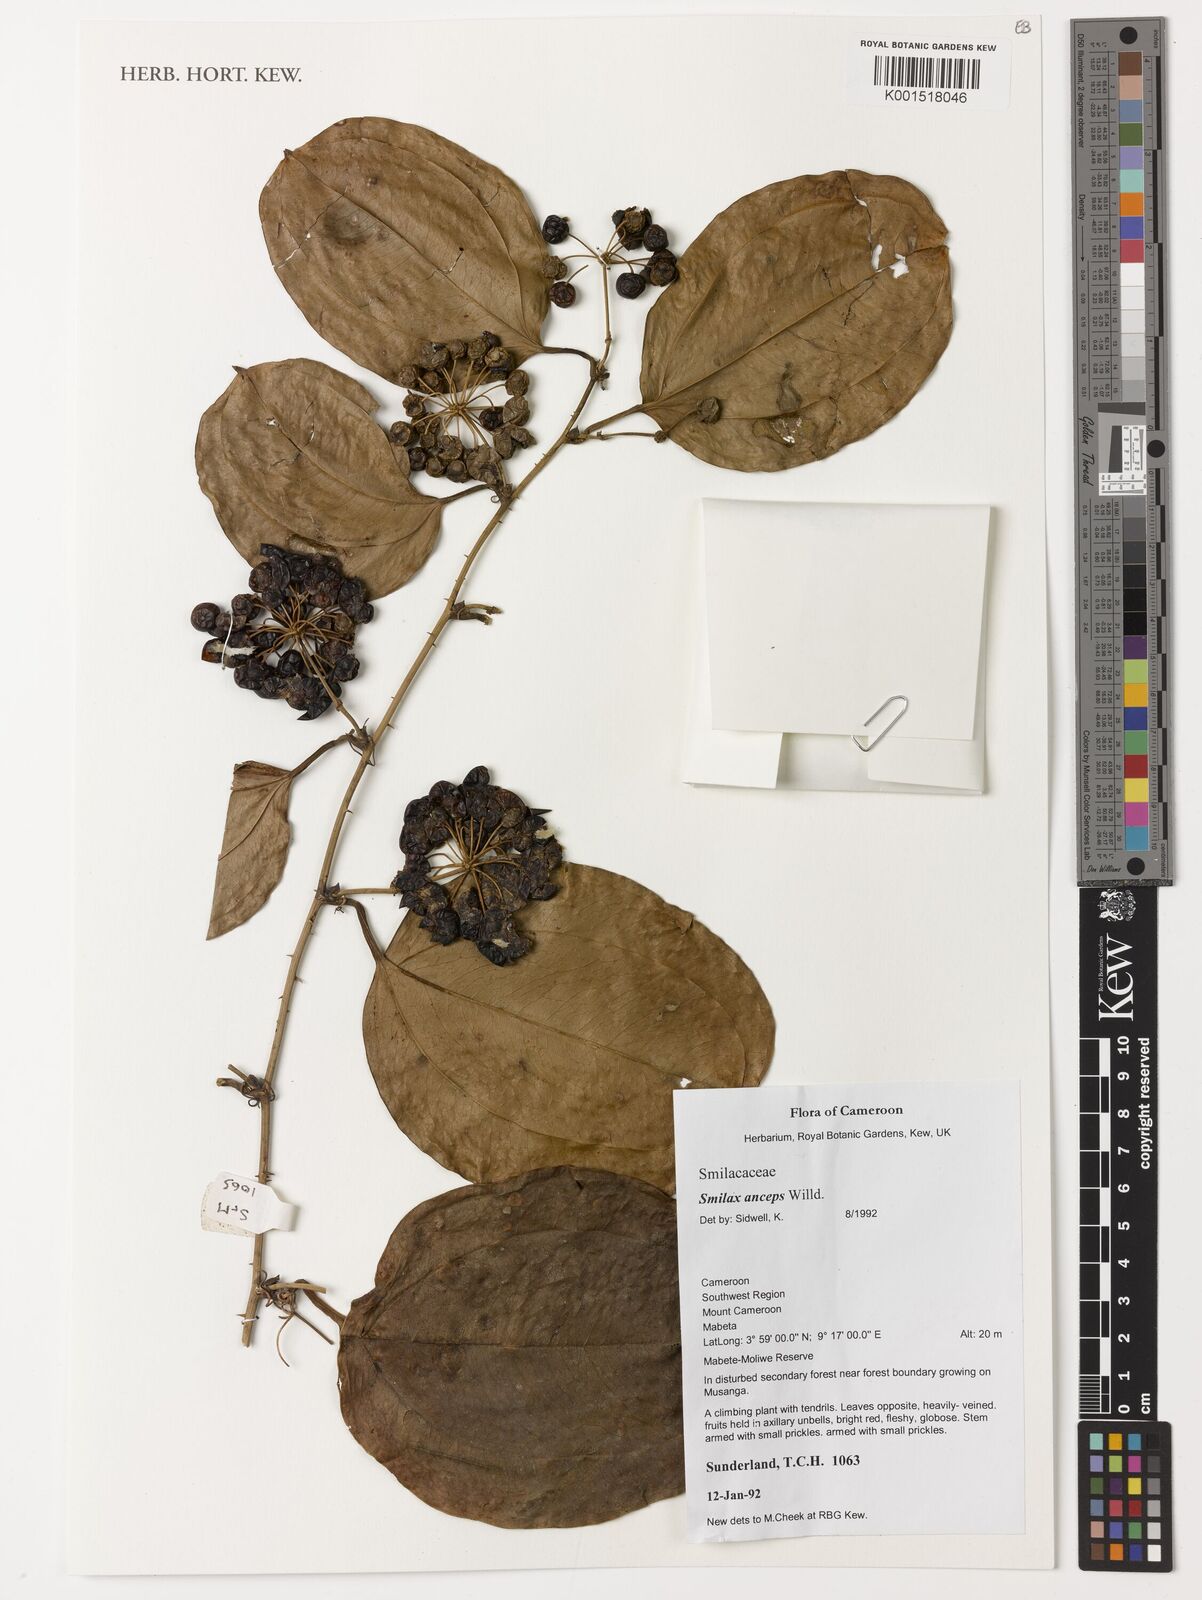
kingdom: Plantae
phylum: Tracheophyta
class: Liliopsida
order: Liliales
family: Smilacaceae
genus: Smilax
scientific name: Smilax anceps
